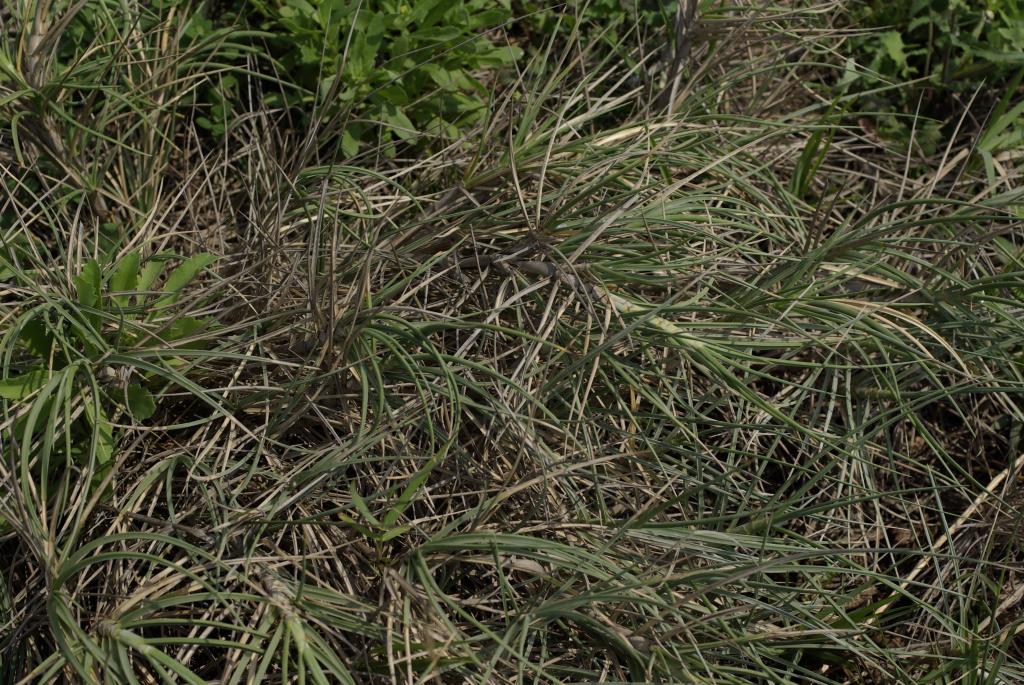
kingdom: Plantae
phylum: Tracheophyta
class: Liliopsida
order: Poales
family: Poaceae
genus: Spinifex
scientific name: Spinifex littoreus
